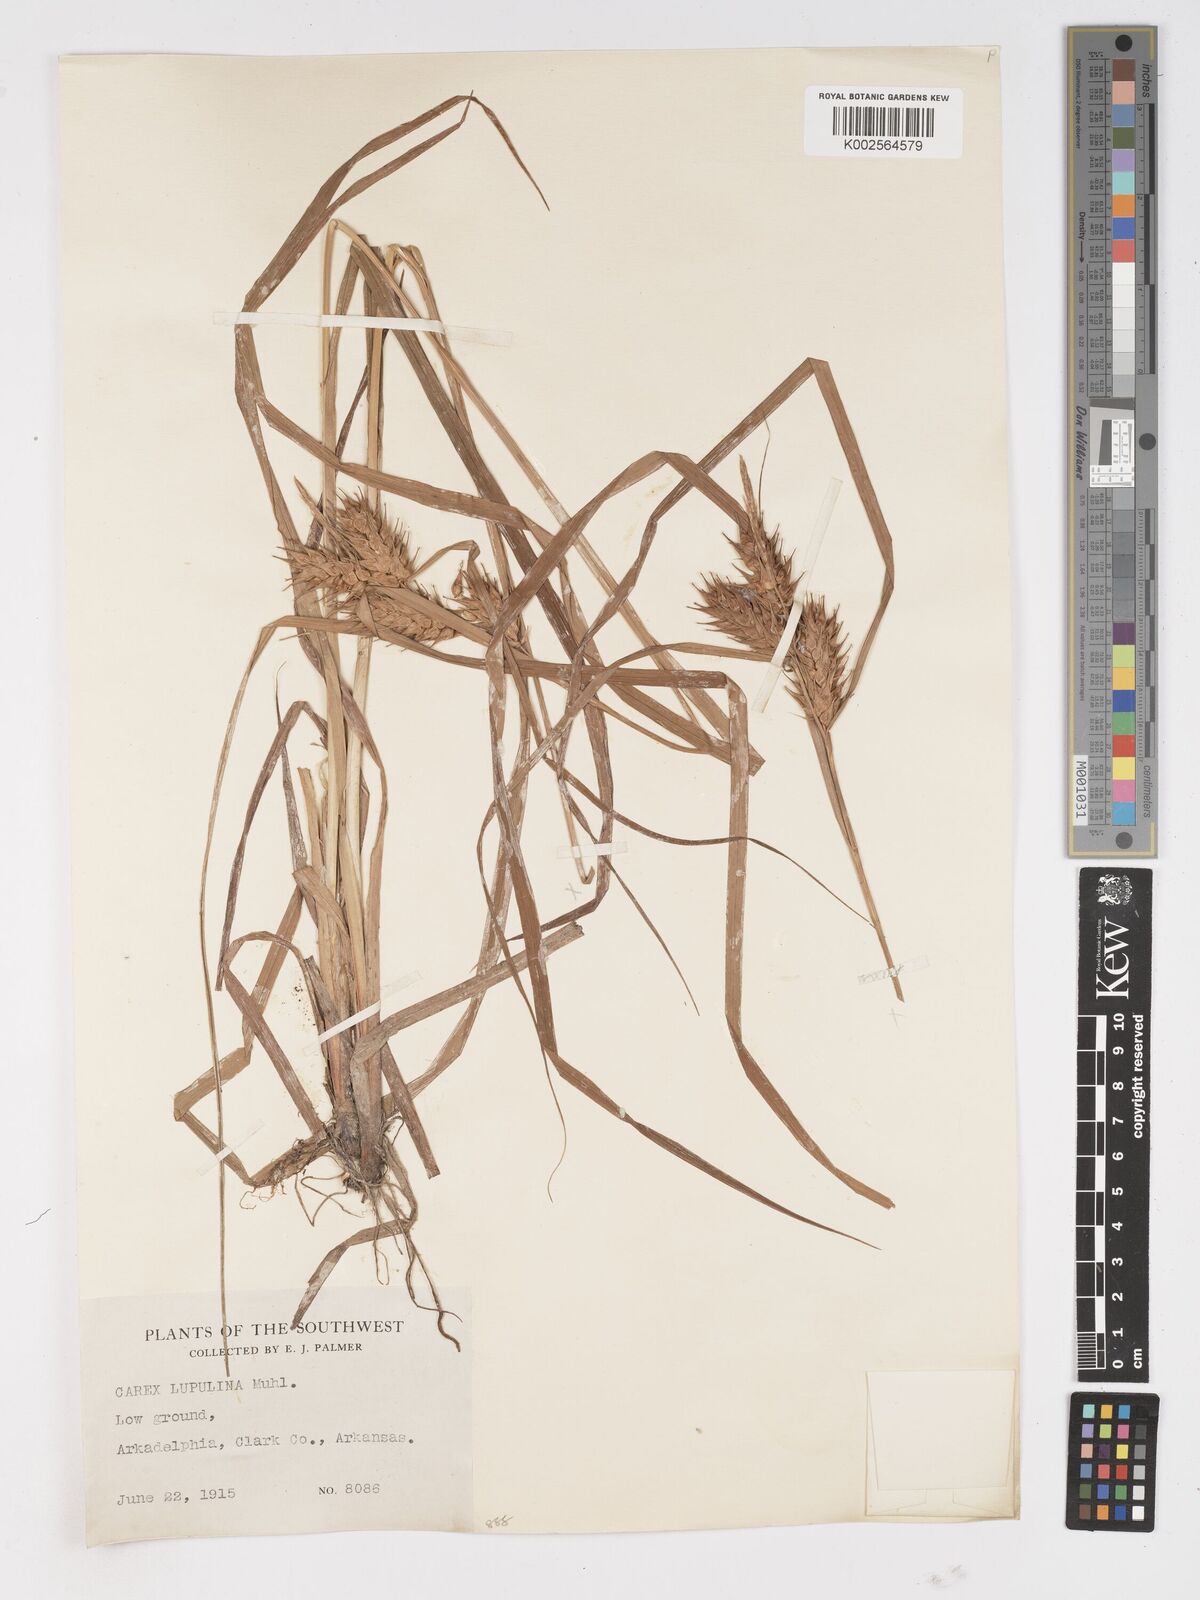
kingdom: Plantae
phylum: Tracheophyta
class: Liliopsida
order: Poales
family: Cyperaceae
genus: Carex
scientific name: Carex lupulina
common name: Hop sedge
